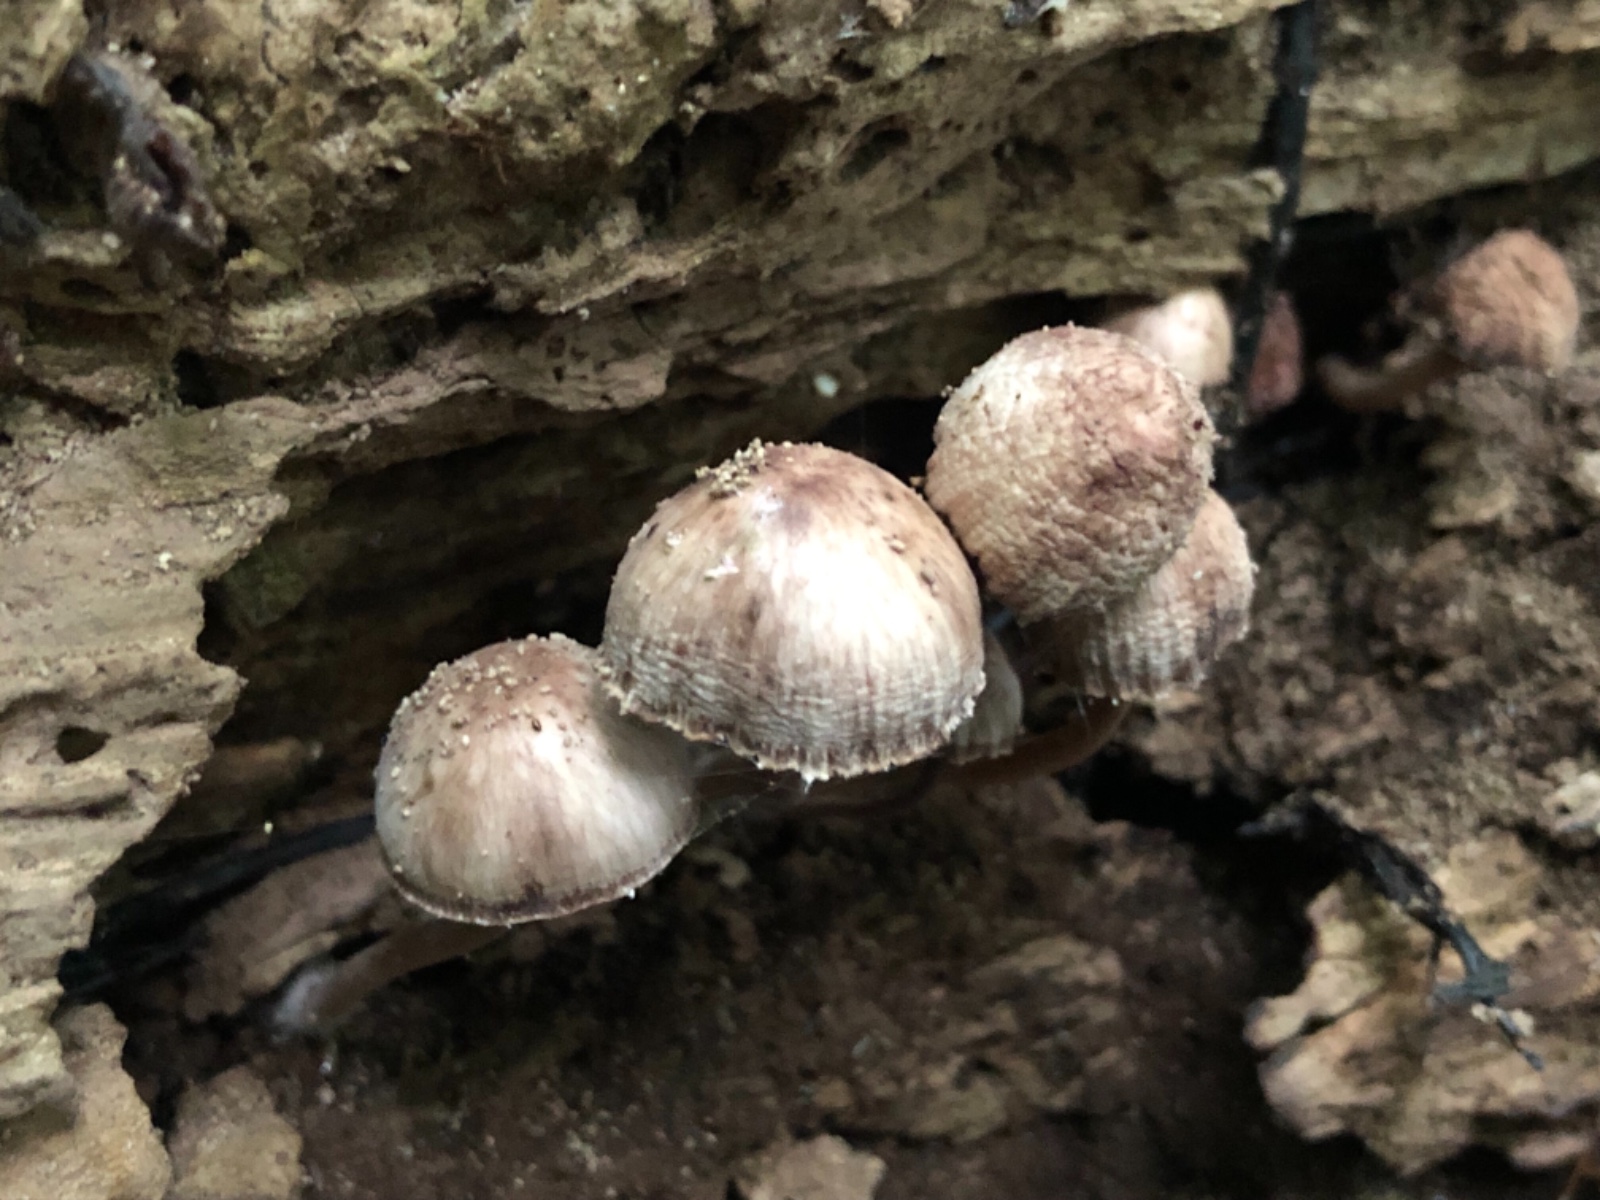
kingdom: Fungi
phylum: Basidiomycota
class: Agaricomycetes
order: Agaricales
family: Mycenaceae
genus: Mycena
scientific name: Mycena haematopus
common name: blødende huesvamp
